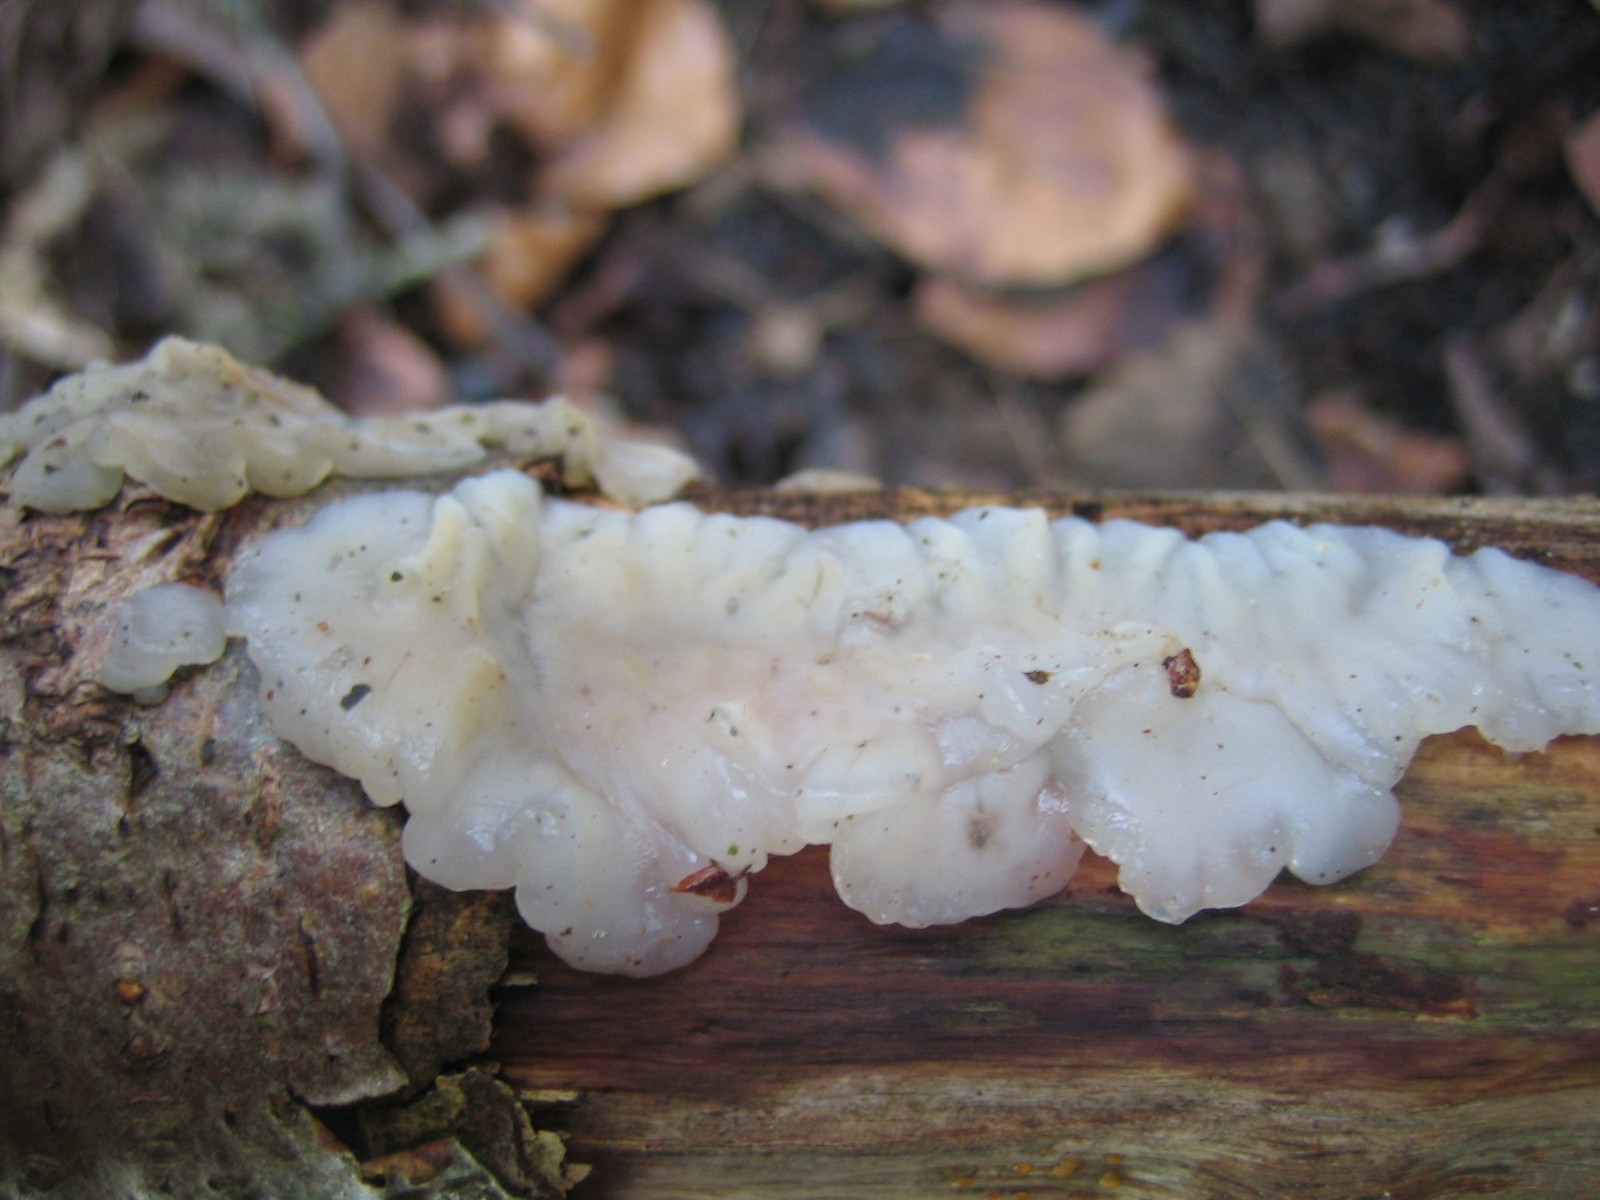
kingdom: Fungi
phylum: Basidiomycota
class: Agaricomycetes
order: Auriculariales
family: Auriculariaceae
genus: Exidia
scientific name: Exidia thuretiana
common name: hvidlig bævretop
